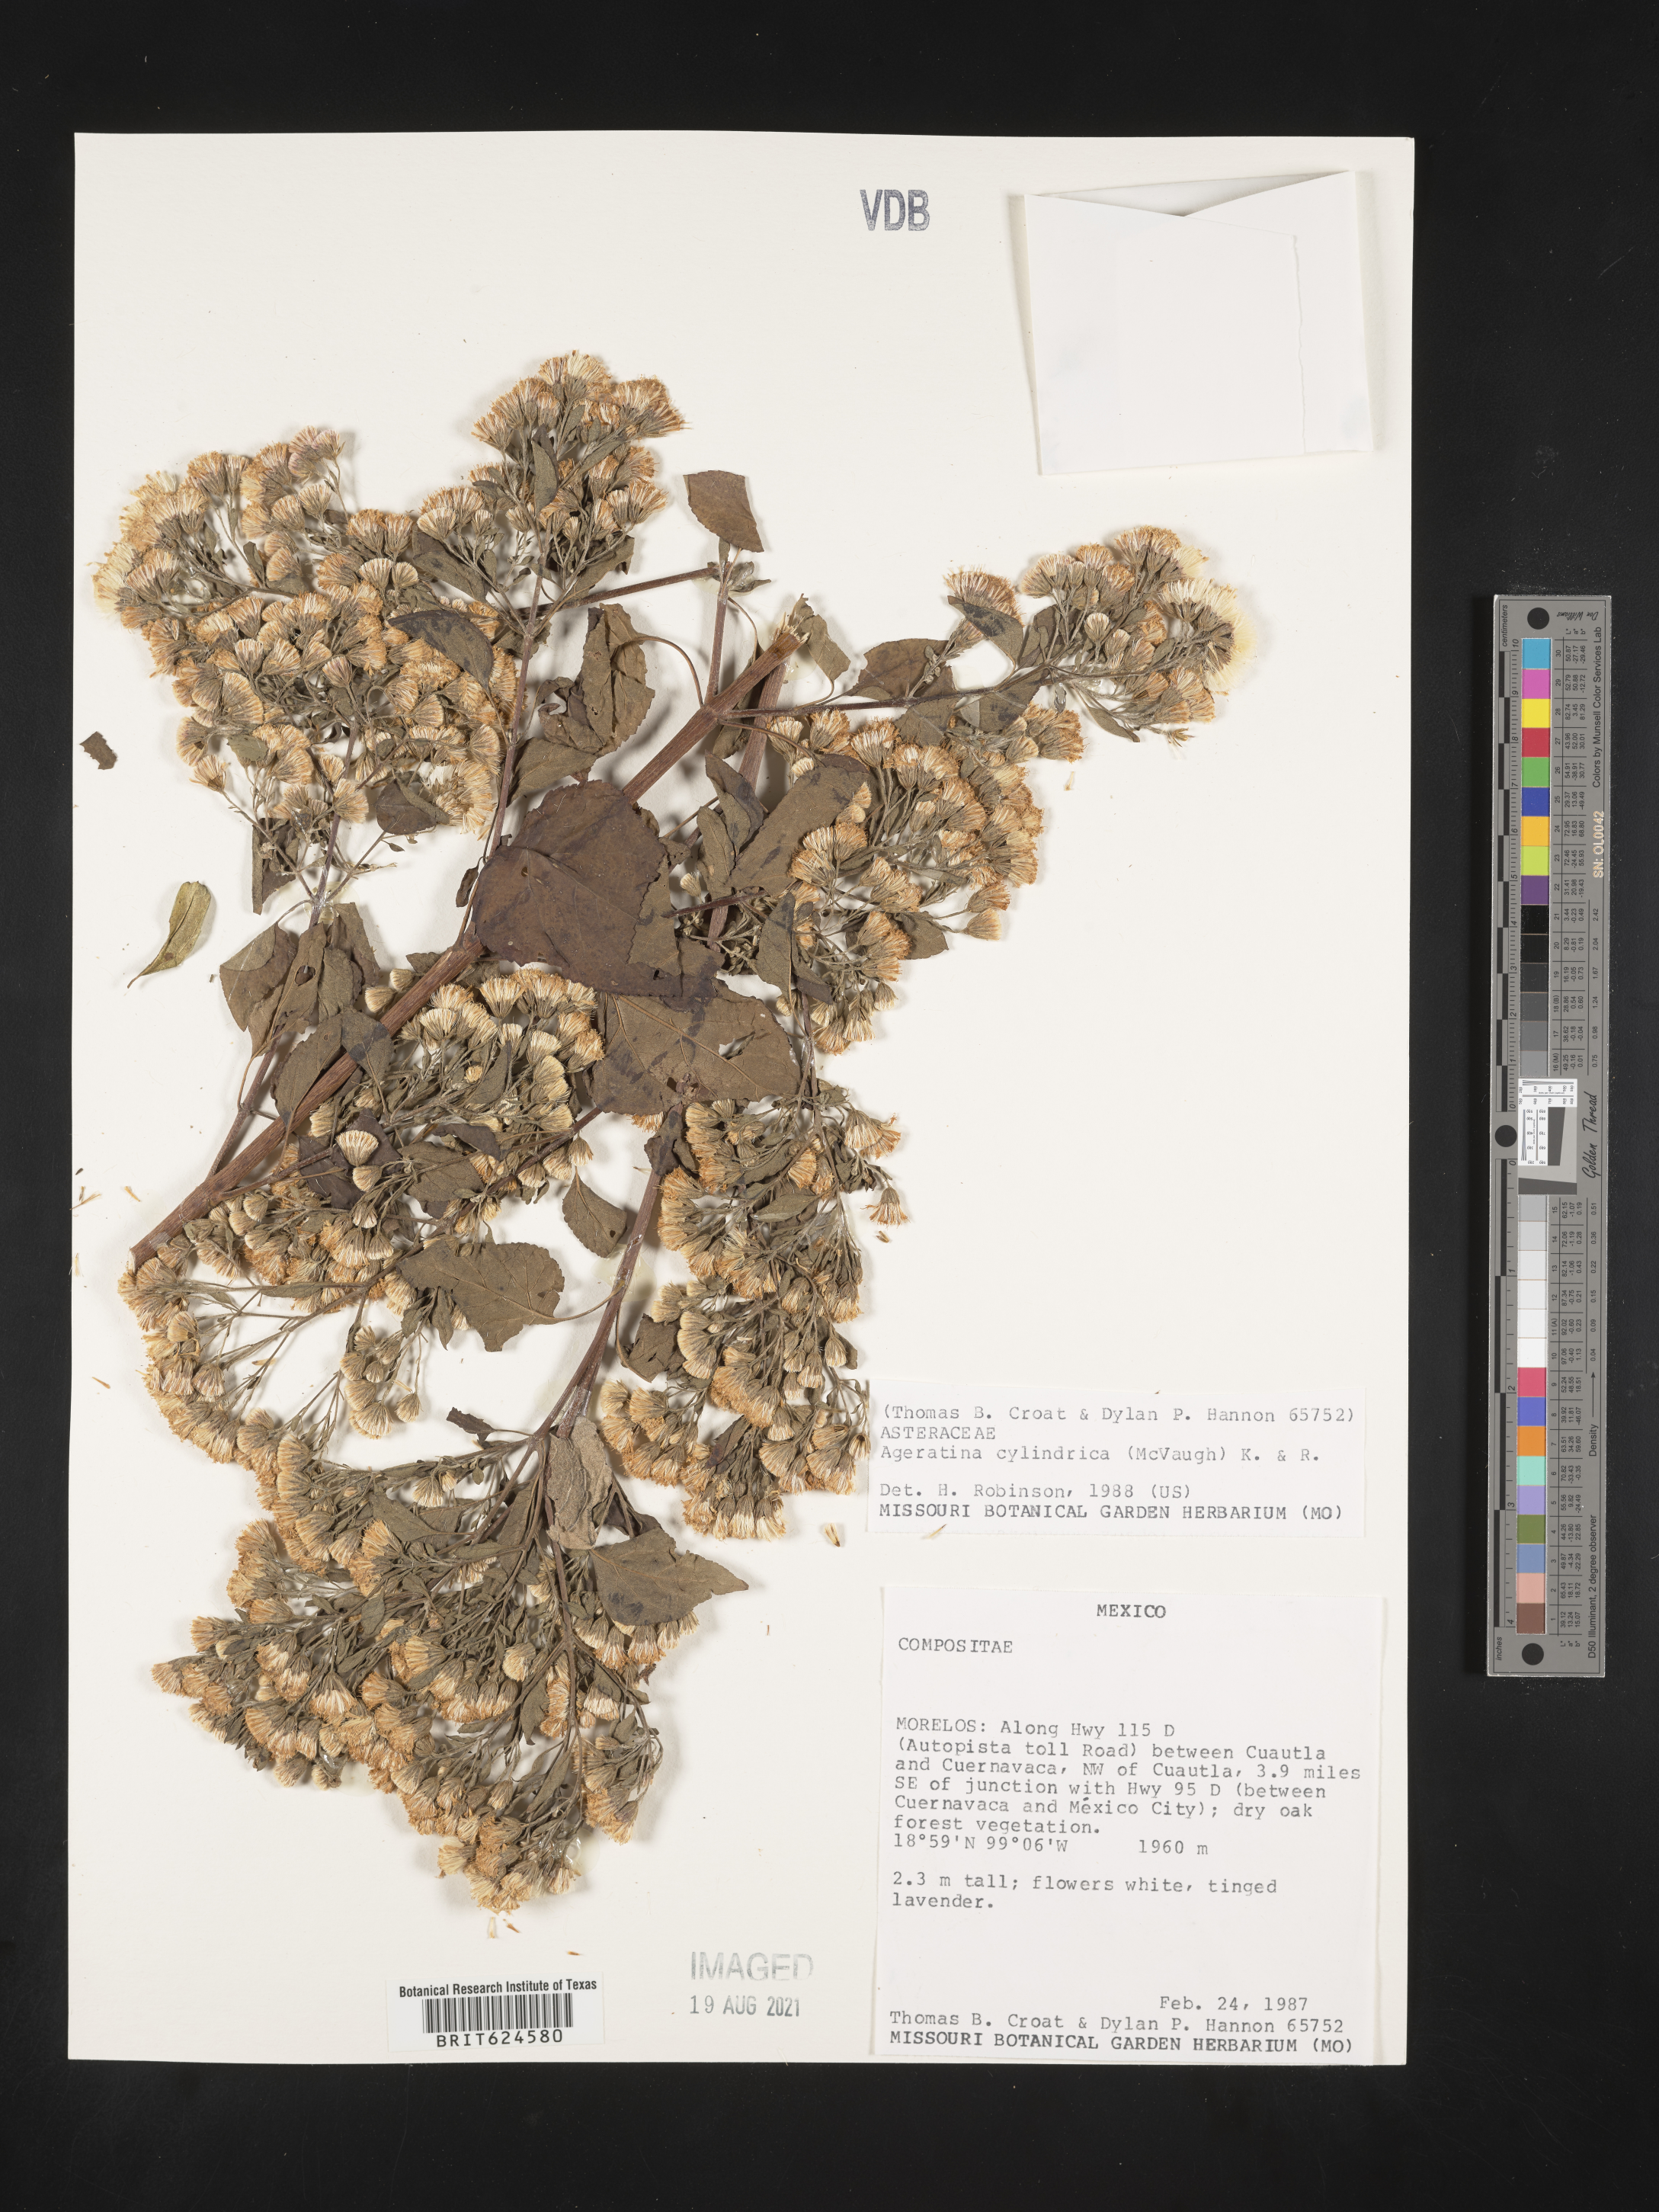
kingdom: Plantae
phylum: Tracheophyta
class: Magnoliopsida
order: Asterales
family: Asteraceae
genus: Ageratum
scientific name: Ageratum
